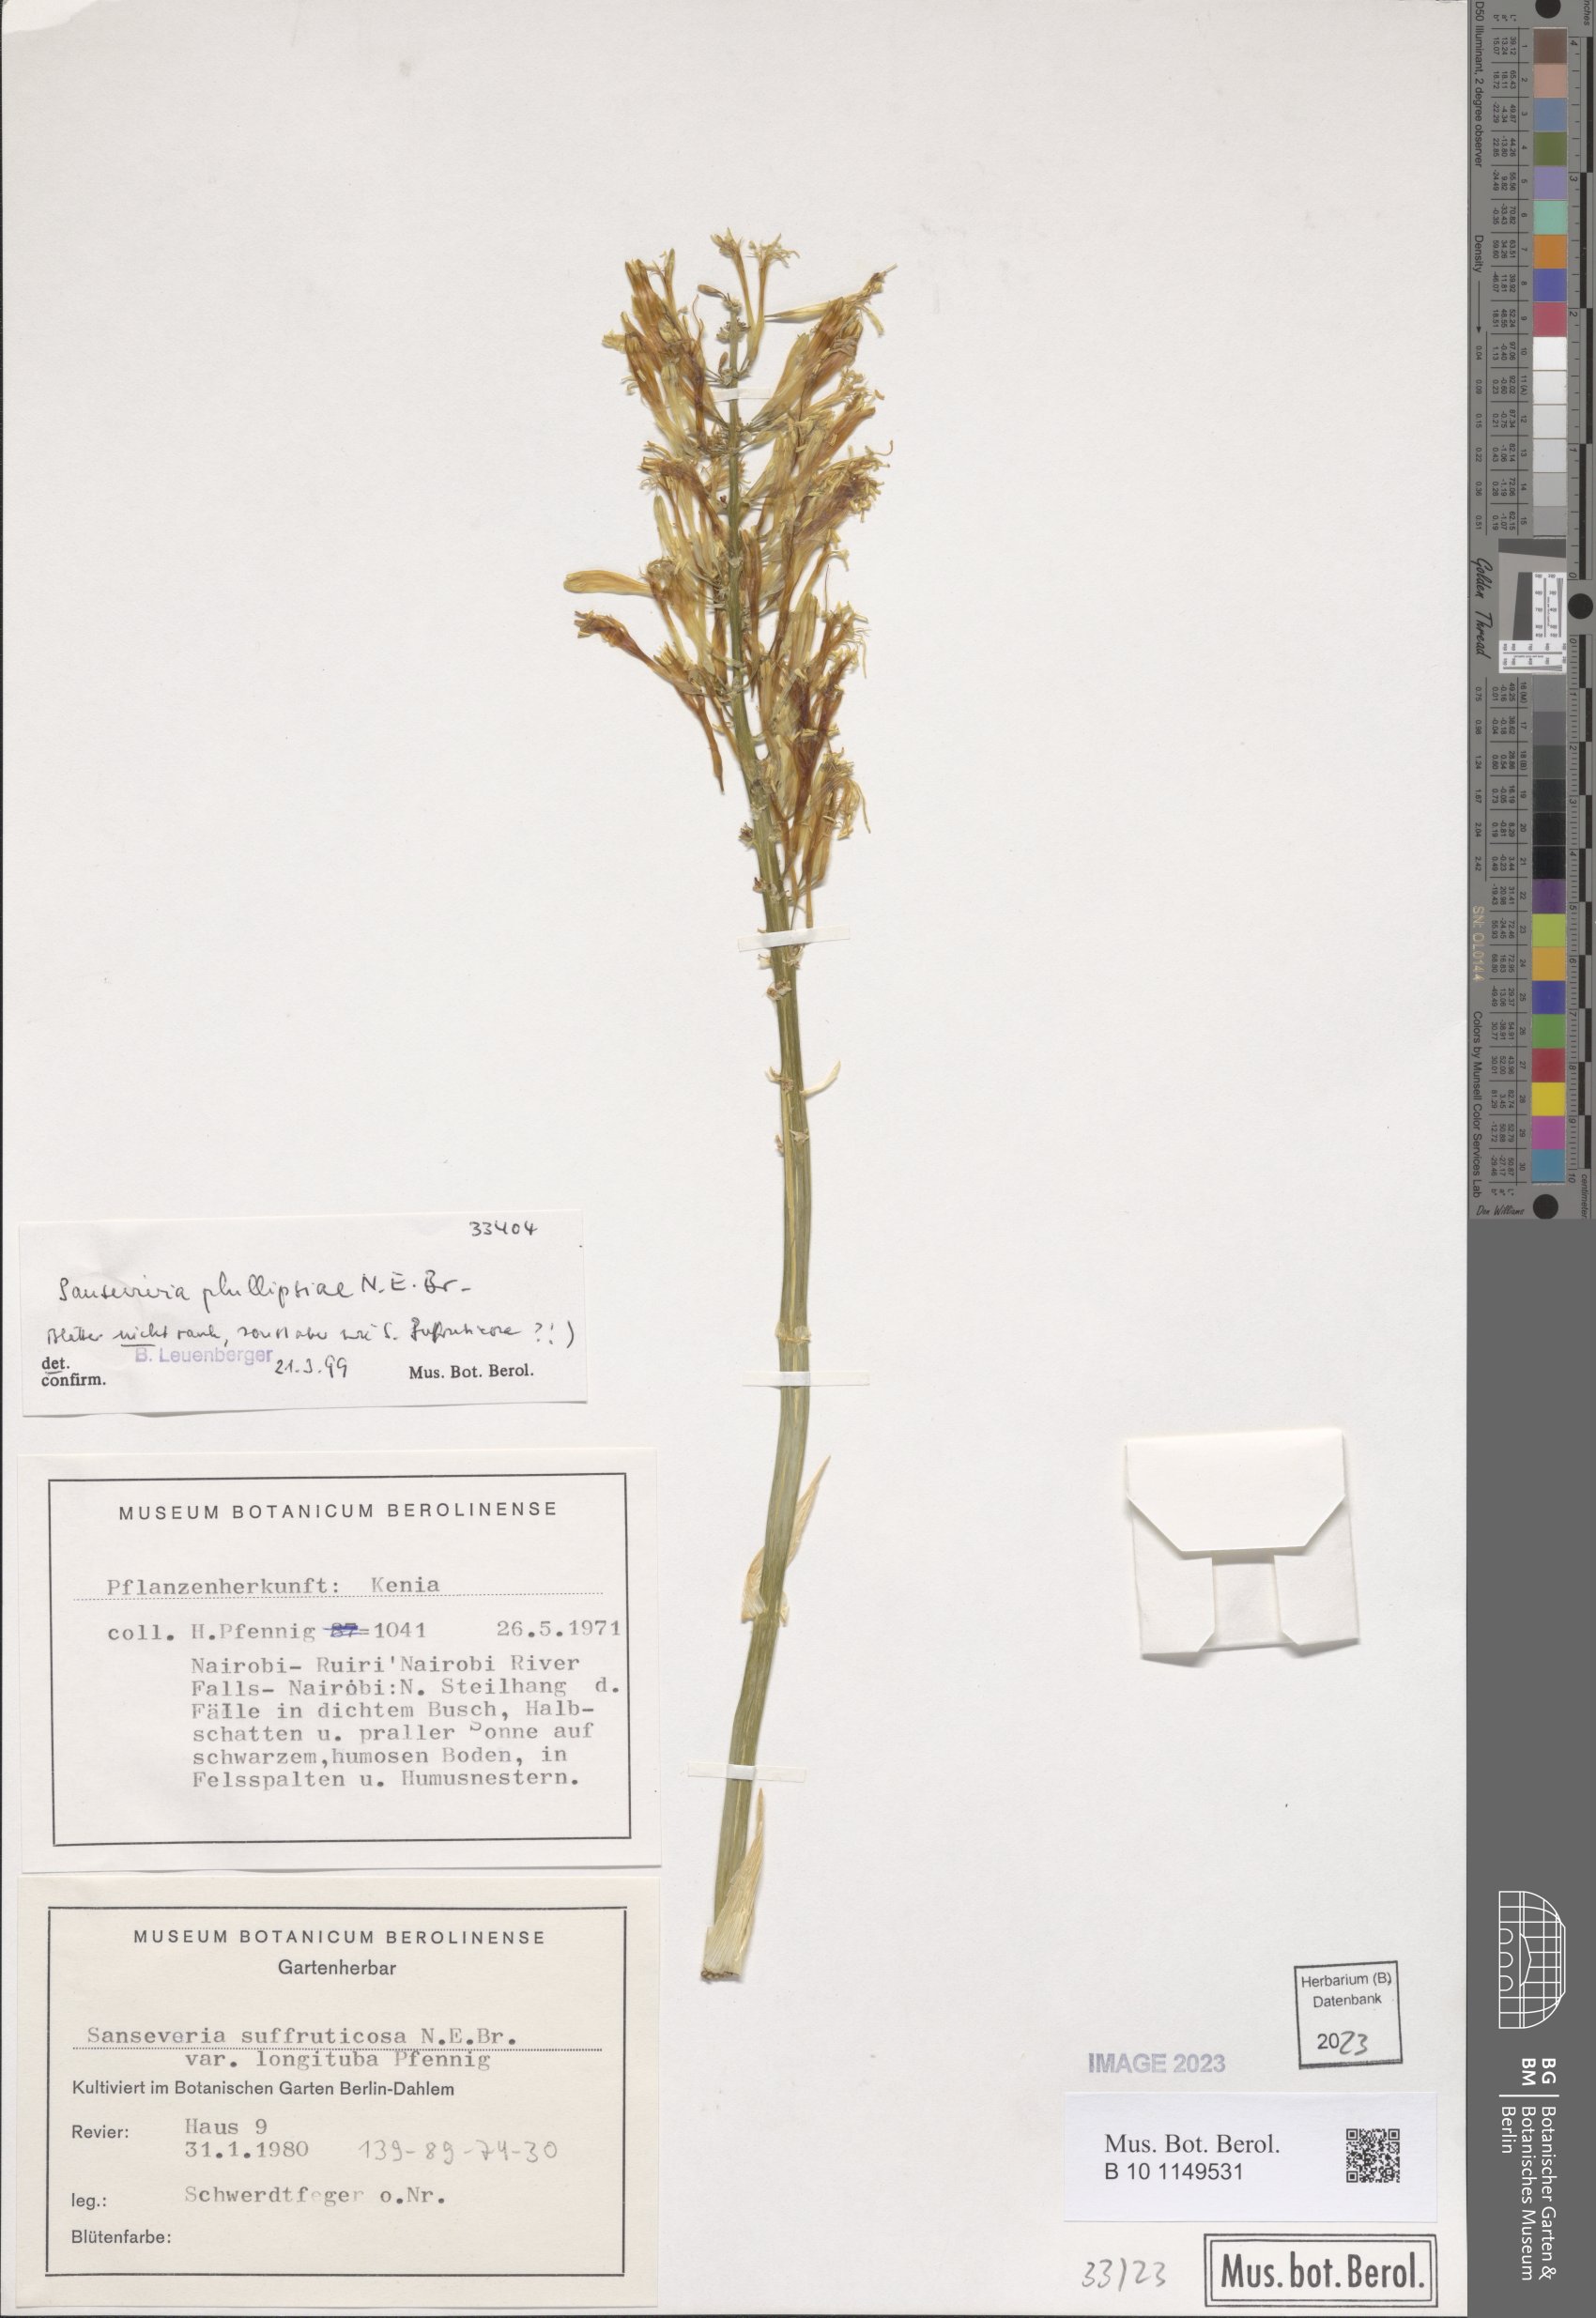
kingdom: Plantae
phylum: Tracheophyta
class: Liliopsida
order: Asparagales
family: Asparagaceae
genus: Dracaena
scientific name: Dracaena phillipsiae
